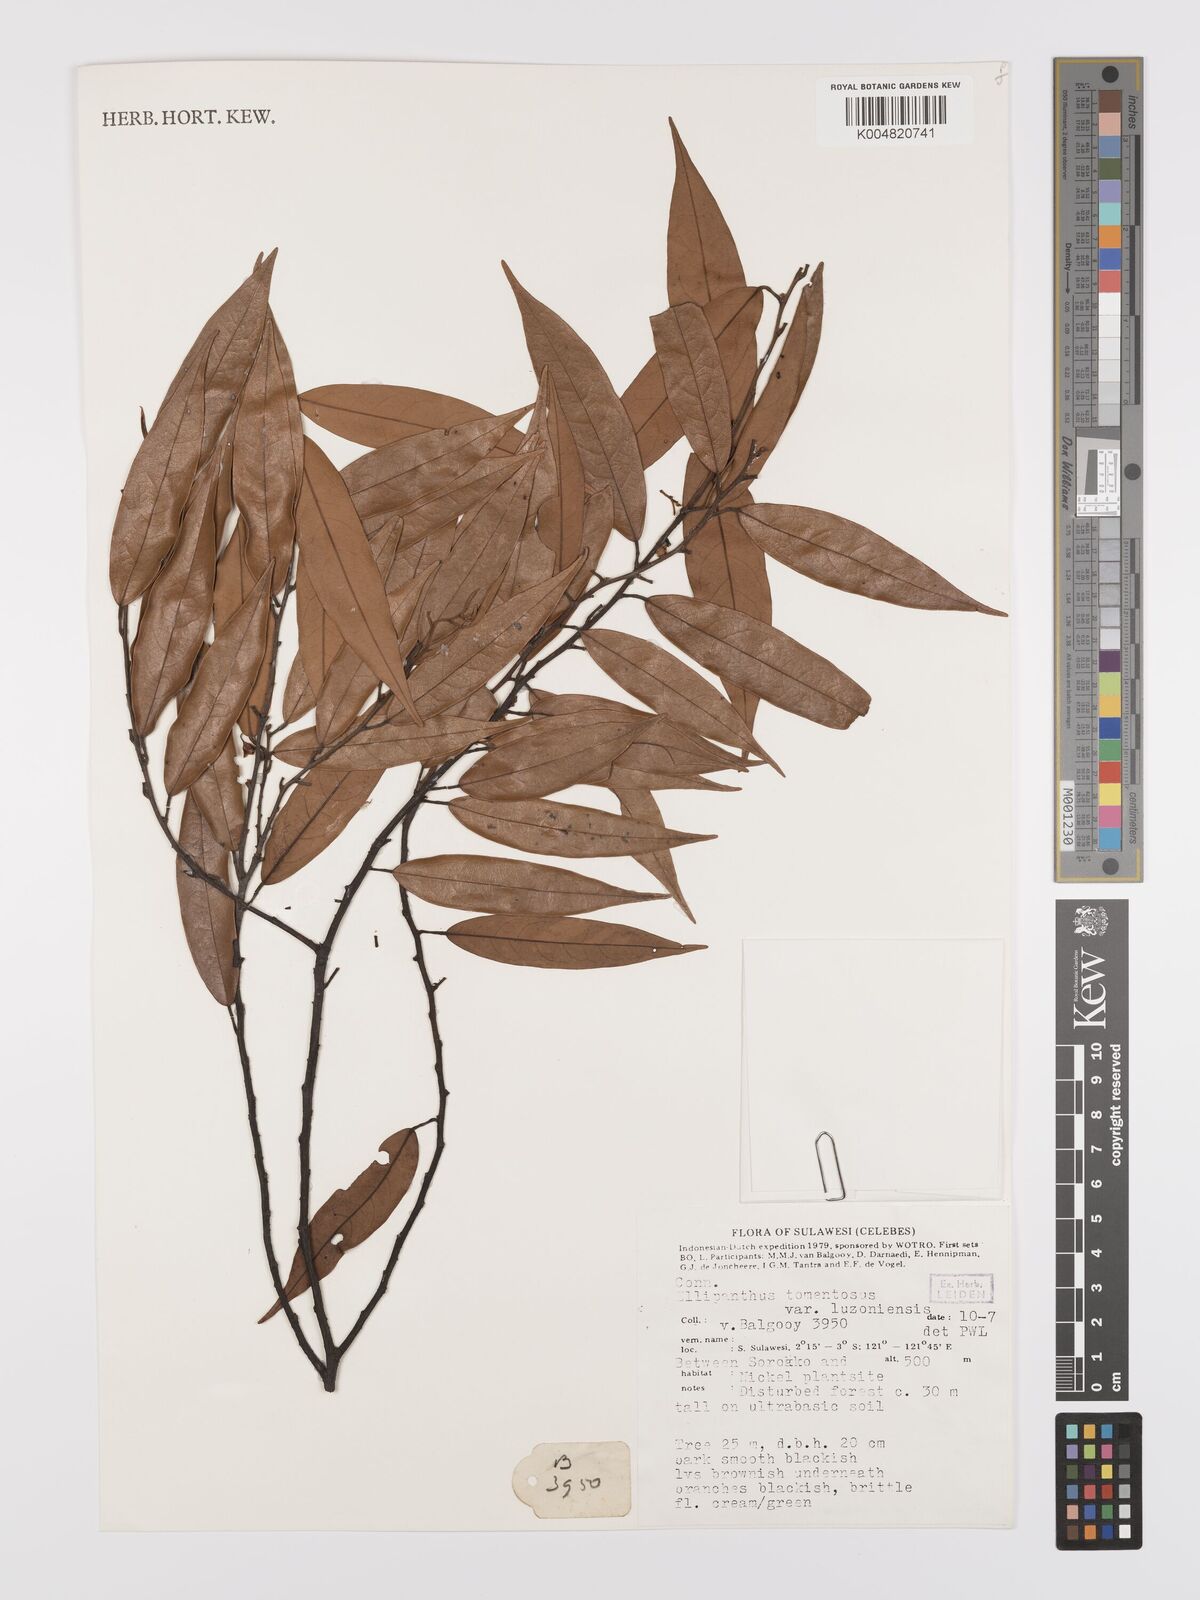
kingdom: Plantae
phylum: Tracheophyta
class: Magnoliopsida
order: Oxalidales
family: Connaraceae
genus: Ellipanthus
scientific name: Ellipanthus tomentosus
